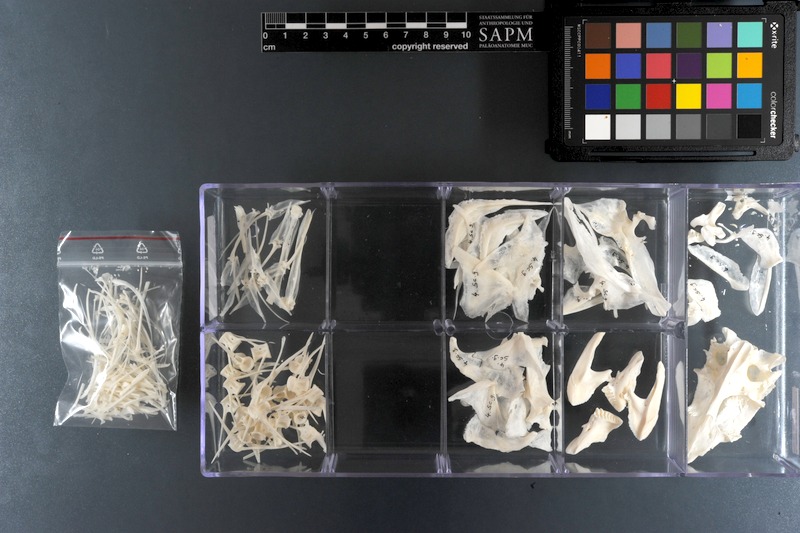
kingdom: Animalia
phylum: Chordata
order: Perciformes
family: Scaridae
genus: Scarus
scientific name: Scarus ghobban
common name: Blue-barred parrotfish
